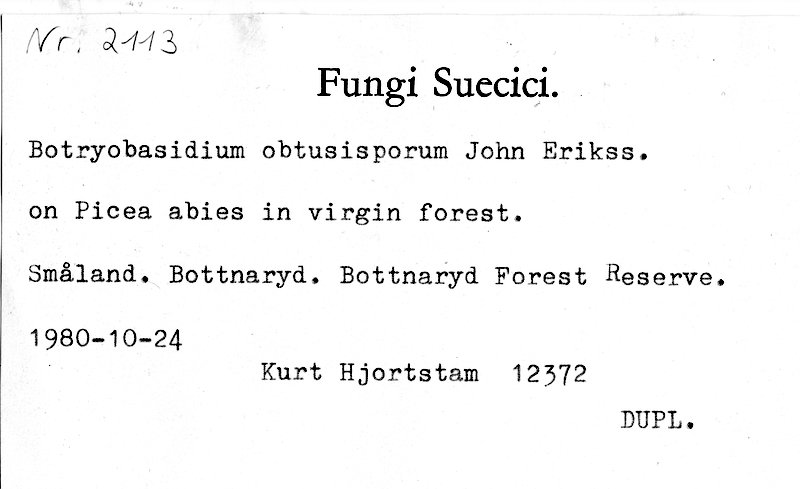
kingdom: Fungi
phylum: Basidiomycota
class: Agaricomycetes
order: Cantharellales
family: Botryobasidiaceae
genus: Botryobasidium
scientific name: Botryobasidium obtusisporum
